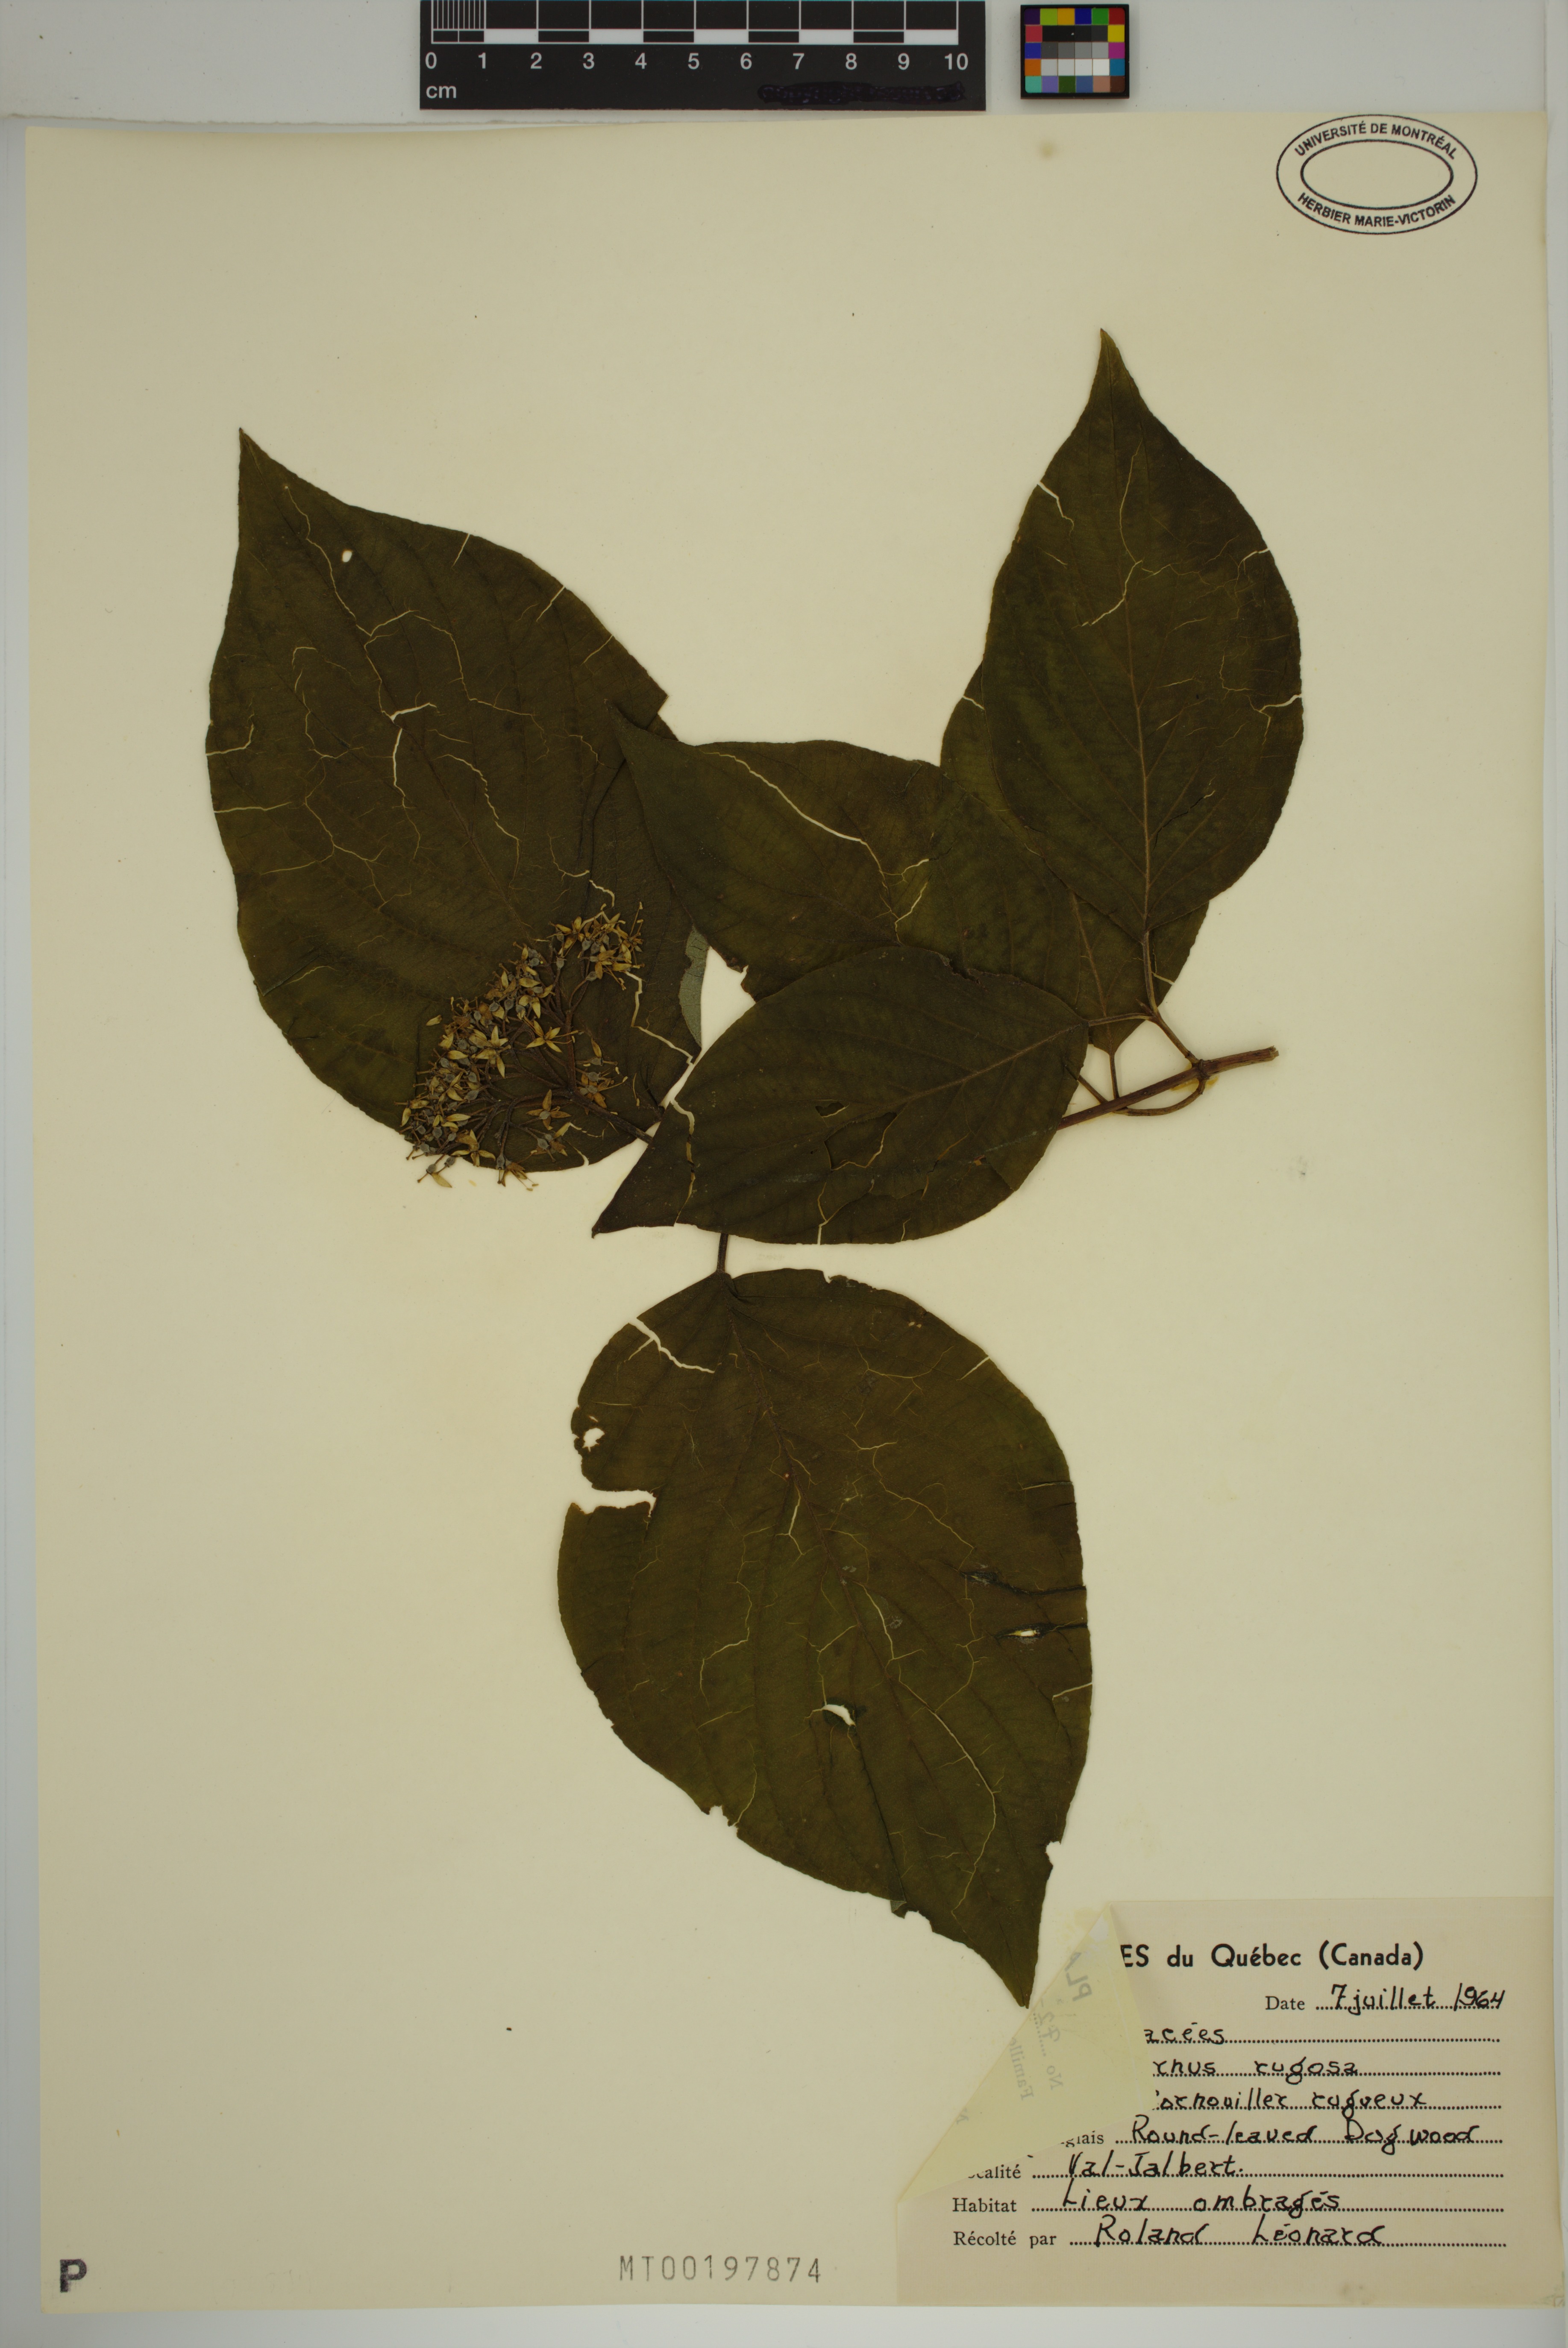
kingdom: Plantae
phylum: Tracheophyta
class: Magnoliopsida
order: Cornales
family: Cornaceae
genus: Cornus
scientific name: Cornus rugosa
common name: Round-leaf dogwood
